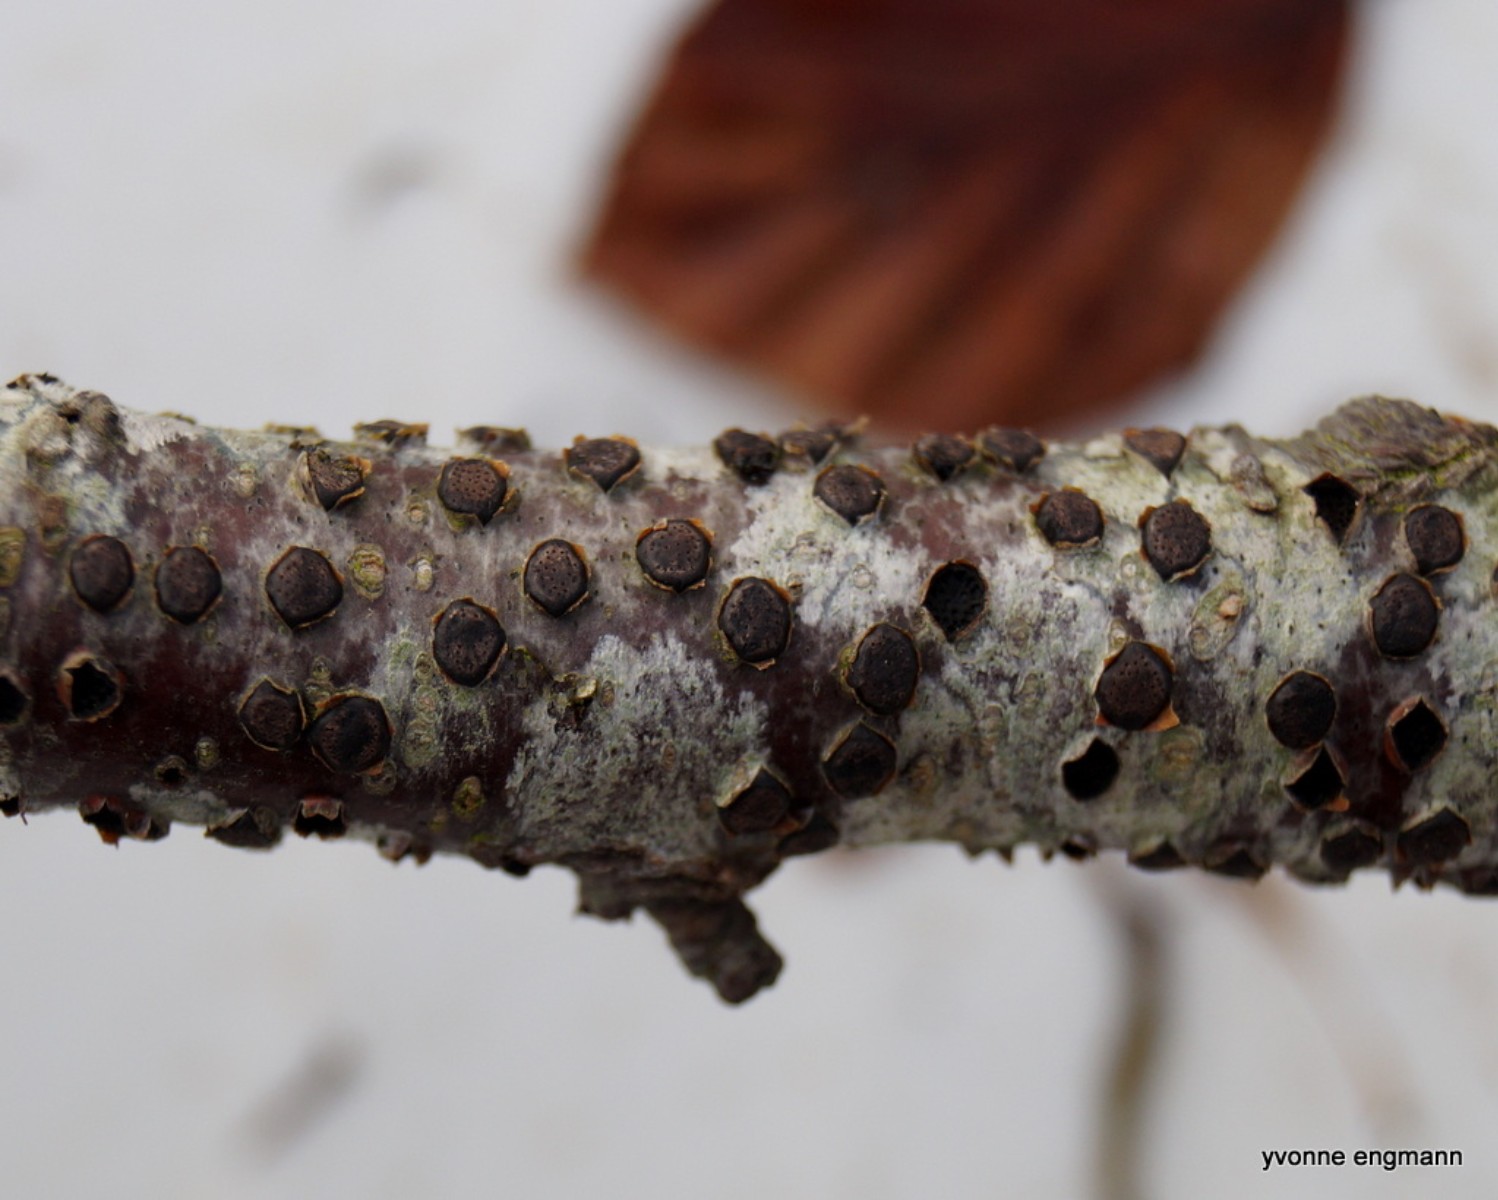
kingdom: Fungi
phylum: Ascomycota
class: Sordariomycetes
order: Xylariales
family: Diatrypaceae
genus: Diatrype
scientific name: Diatrype disciformis
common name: kant-kulskorpe
